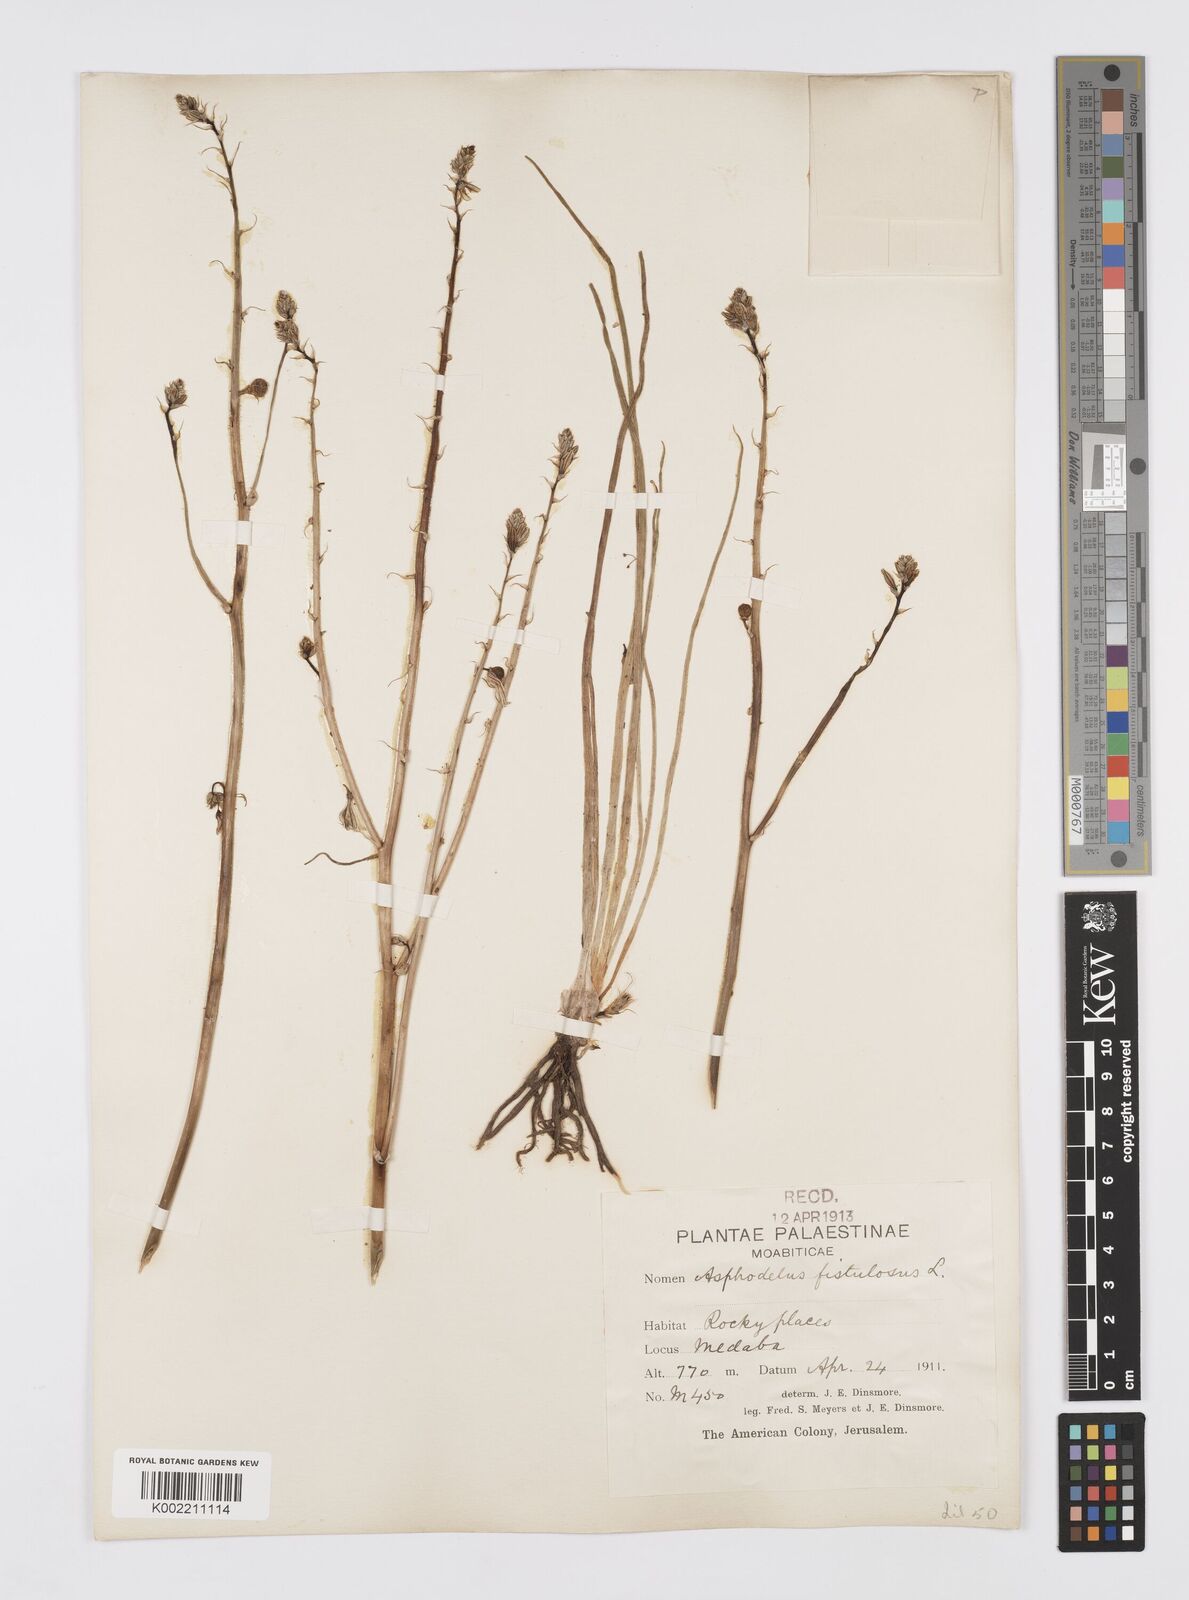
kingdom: Plantae
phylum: Tracheophyta
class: Liliopsida
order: Asparagales
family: Asphodelaceae
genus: Asphodelus
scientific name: Asphodelus fistulosus
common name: Onionweed
